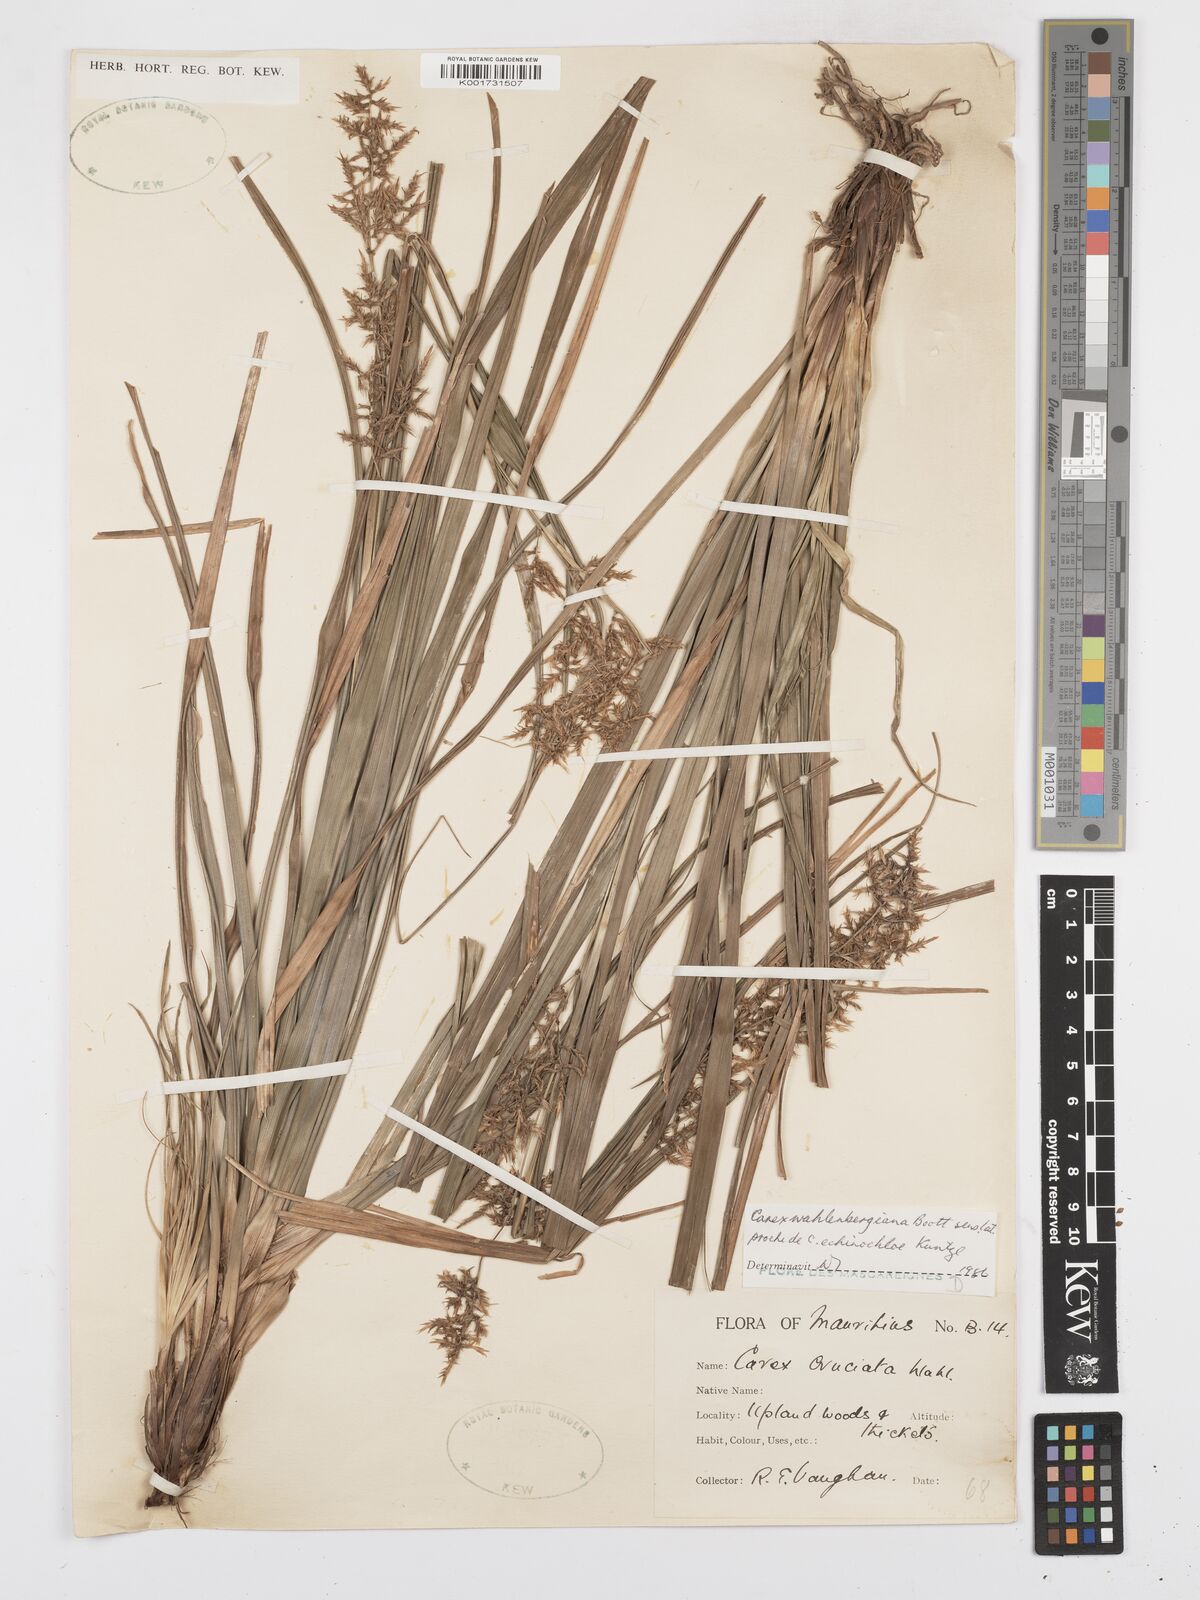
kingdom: Plantae
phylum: Tracheophyta
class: Liliopsida
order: Poales
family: Cyperaceae
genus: Carex
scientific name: Carex wahlenbergiana
